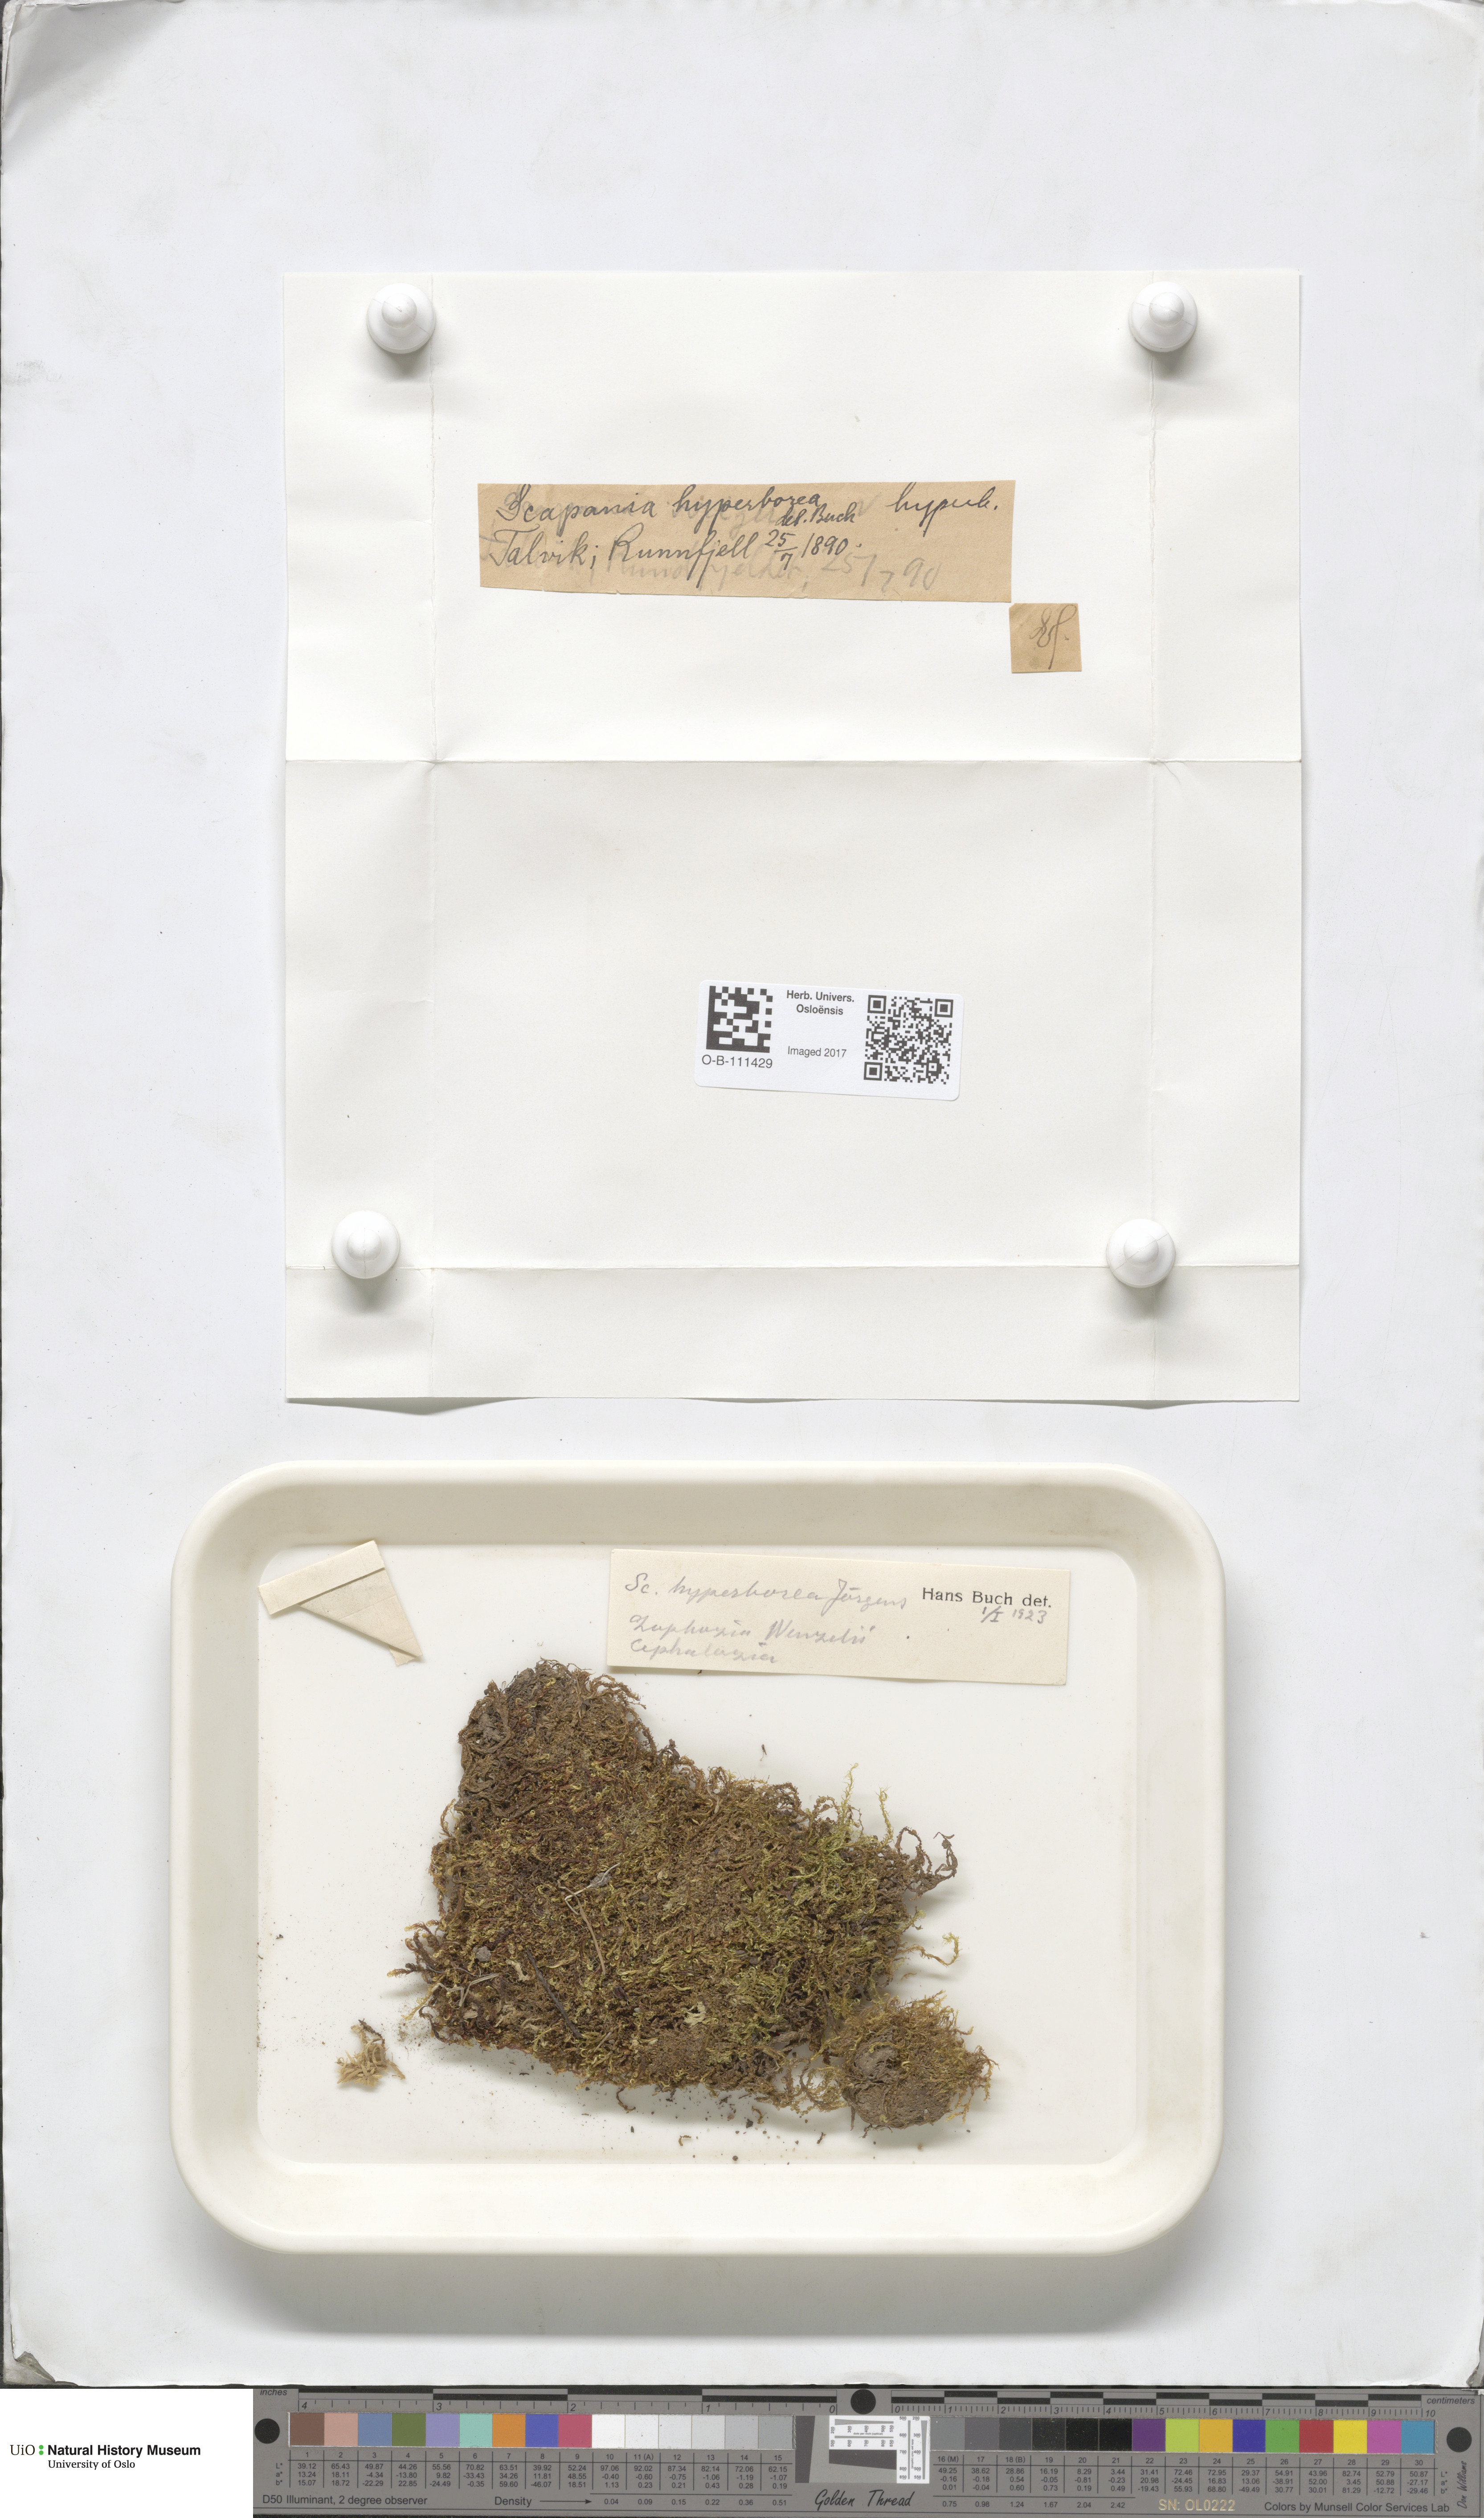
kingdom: Plantae
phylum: Marchantiophyta
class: Jungermanniopsida
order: Jungermanniales
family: Scapaniaceae
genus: Scapania
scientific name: Scapania hyperborea
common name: Northern earwort
